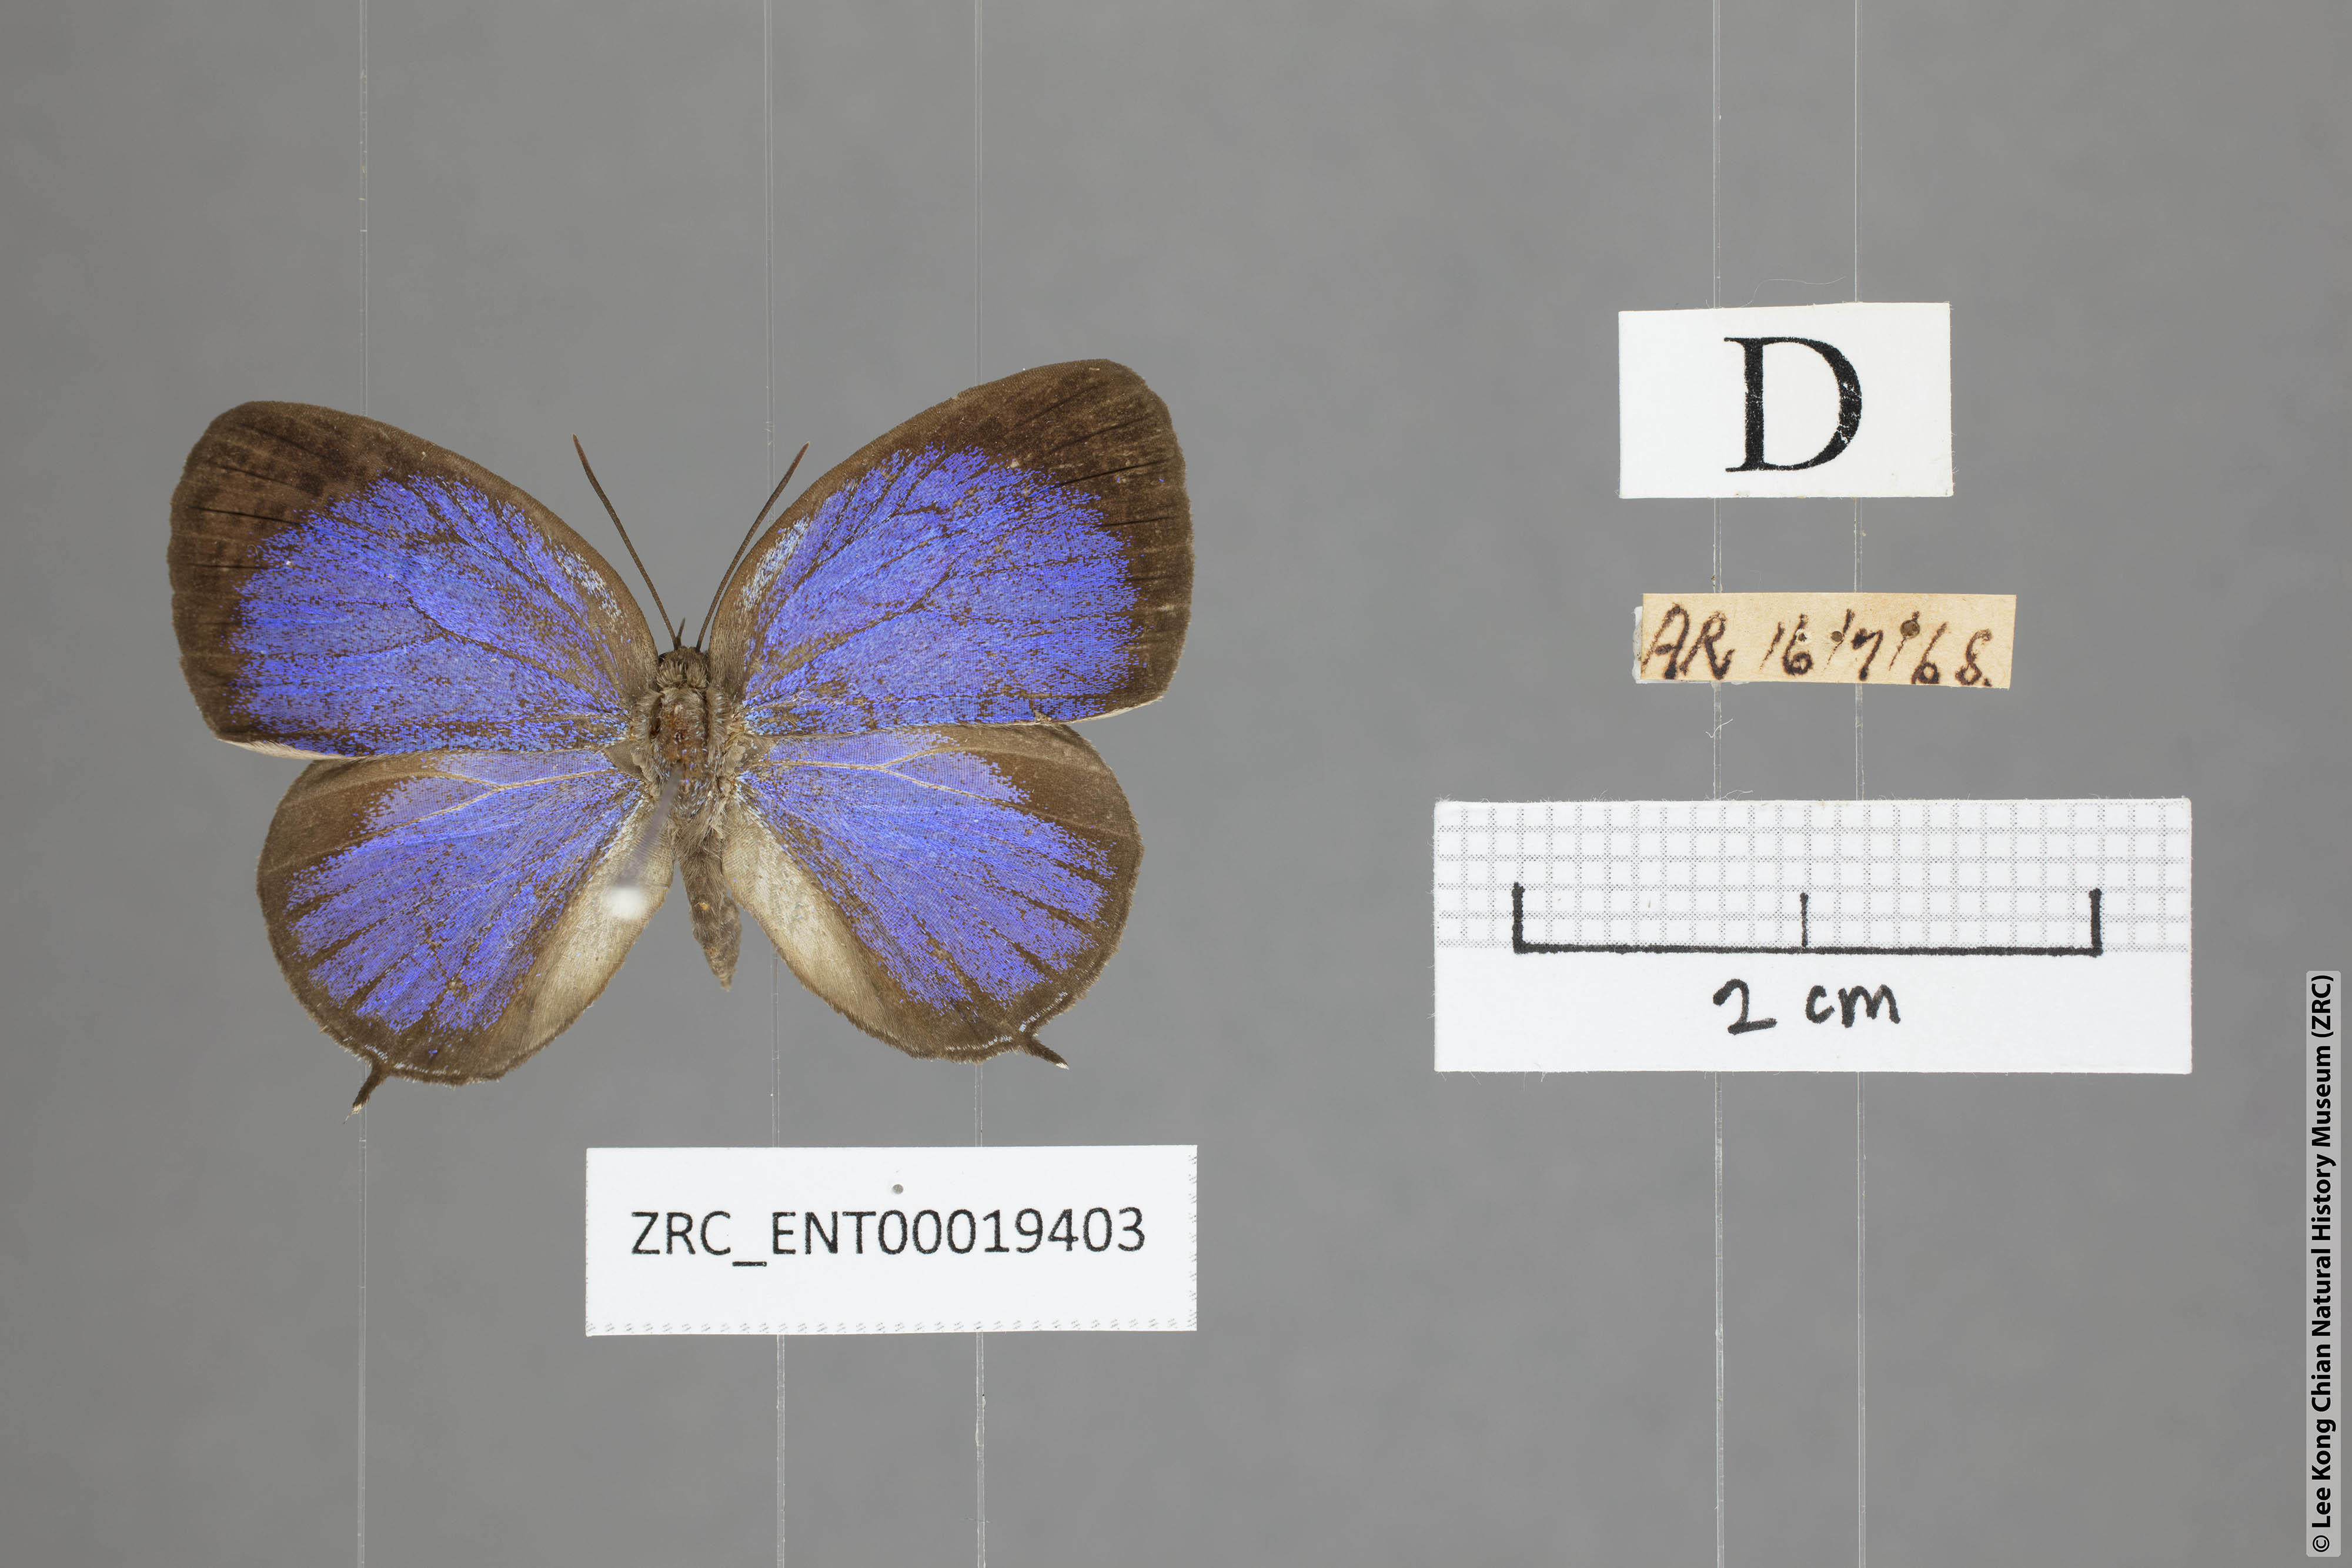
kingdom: Animalia
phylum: Arthropoda
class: Insecta
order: Lepidoptera
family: Lycaenidae
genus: Arhopala
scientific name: Arhopala democritus
